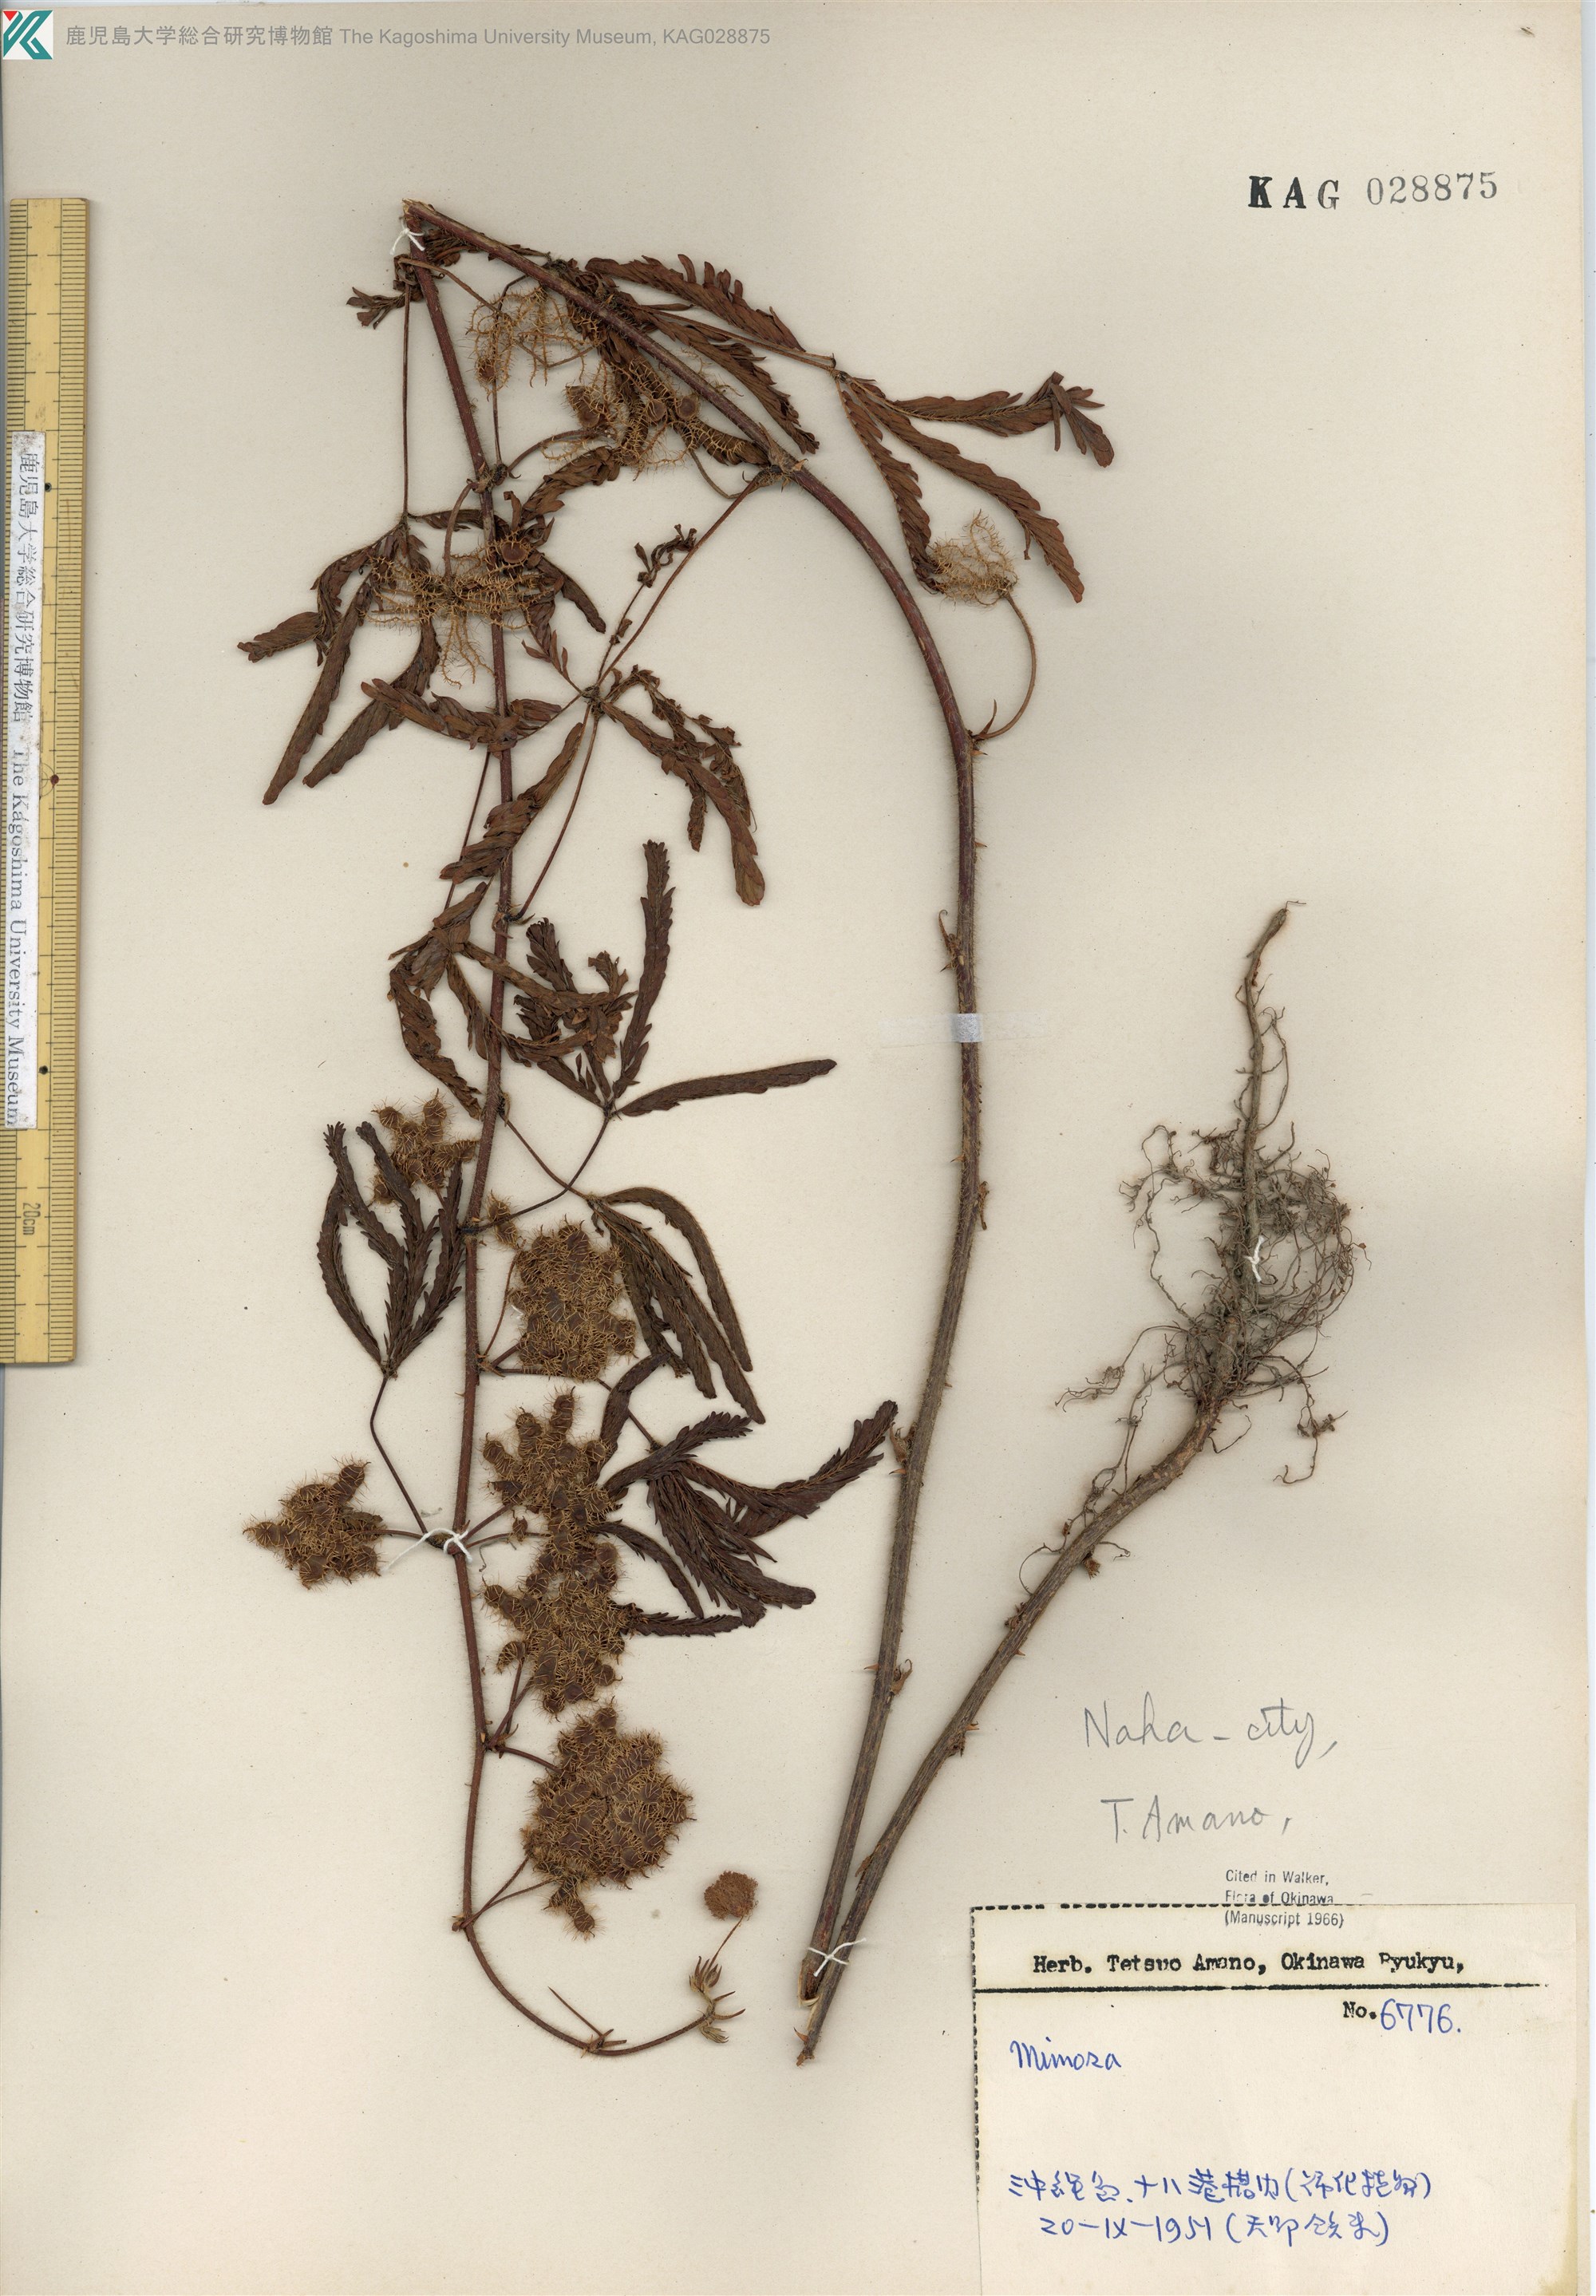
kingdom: Plantae
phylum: Tracheophyta
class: Magnoliopsida
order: Fabales
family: Fabaceae
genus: Mimosa
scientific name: Mimosa pudica
